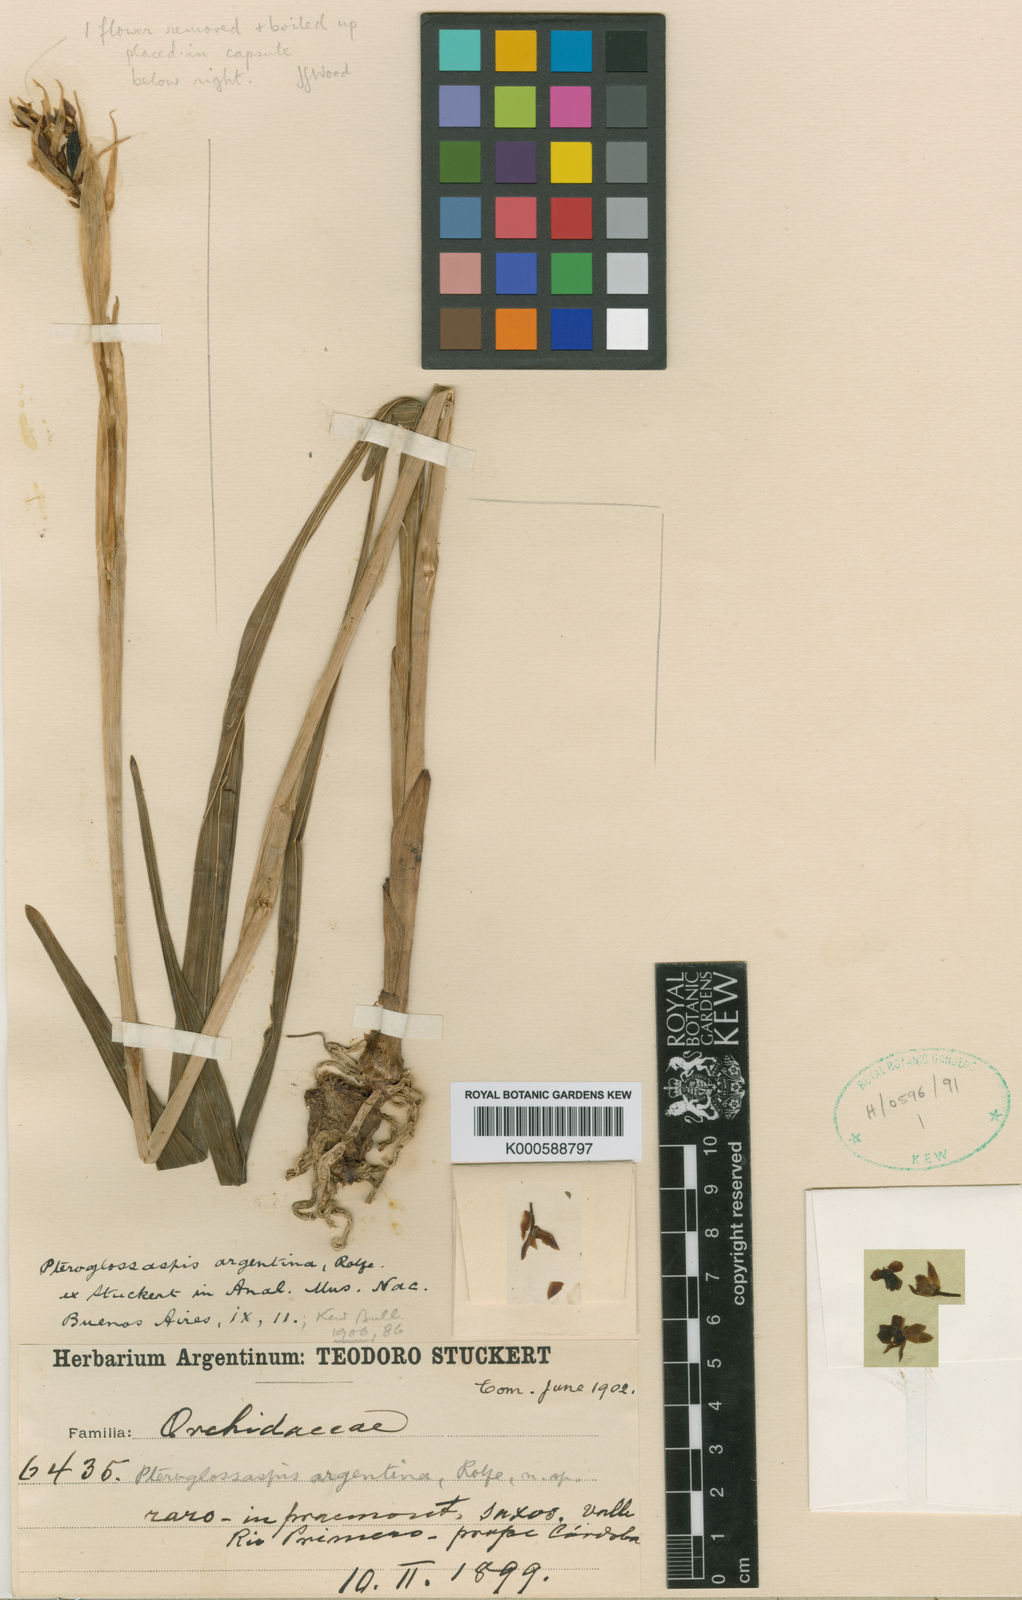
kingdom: Plantae
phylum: Tracheophyta
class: Liliopsida
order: Asparagales
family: Orchidaceae
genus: Eulophia
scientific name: Eulophia ruwenzoriensis
